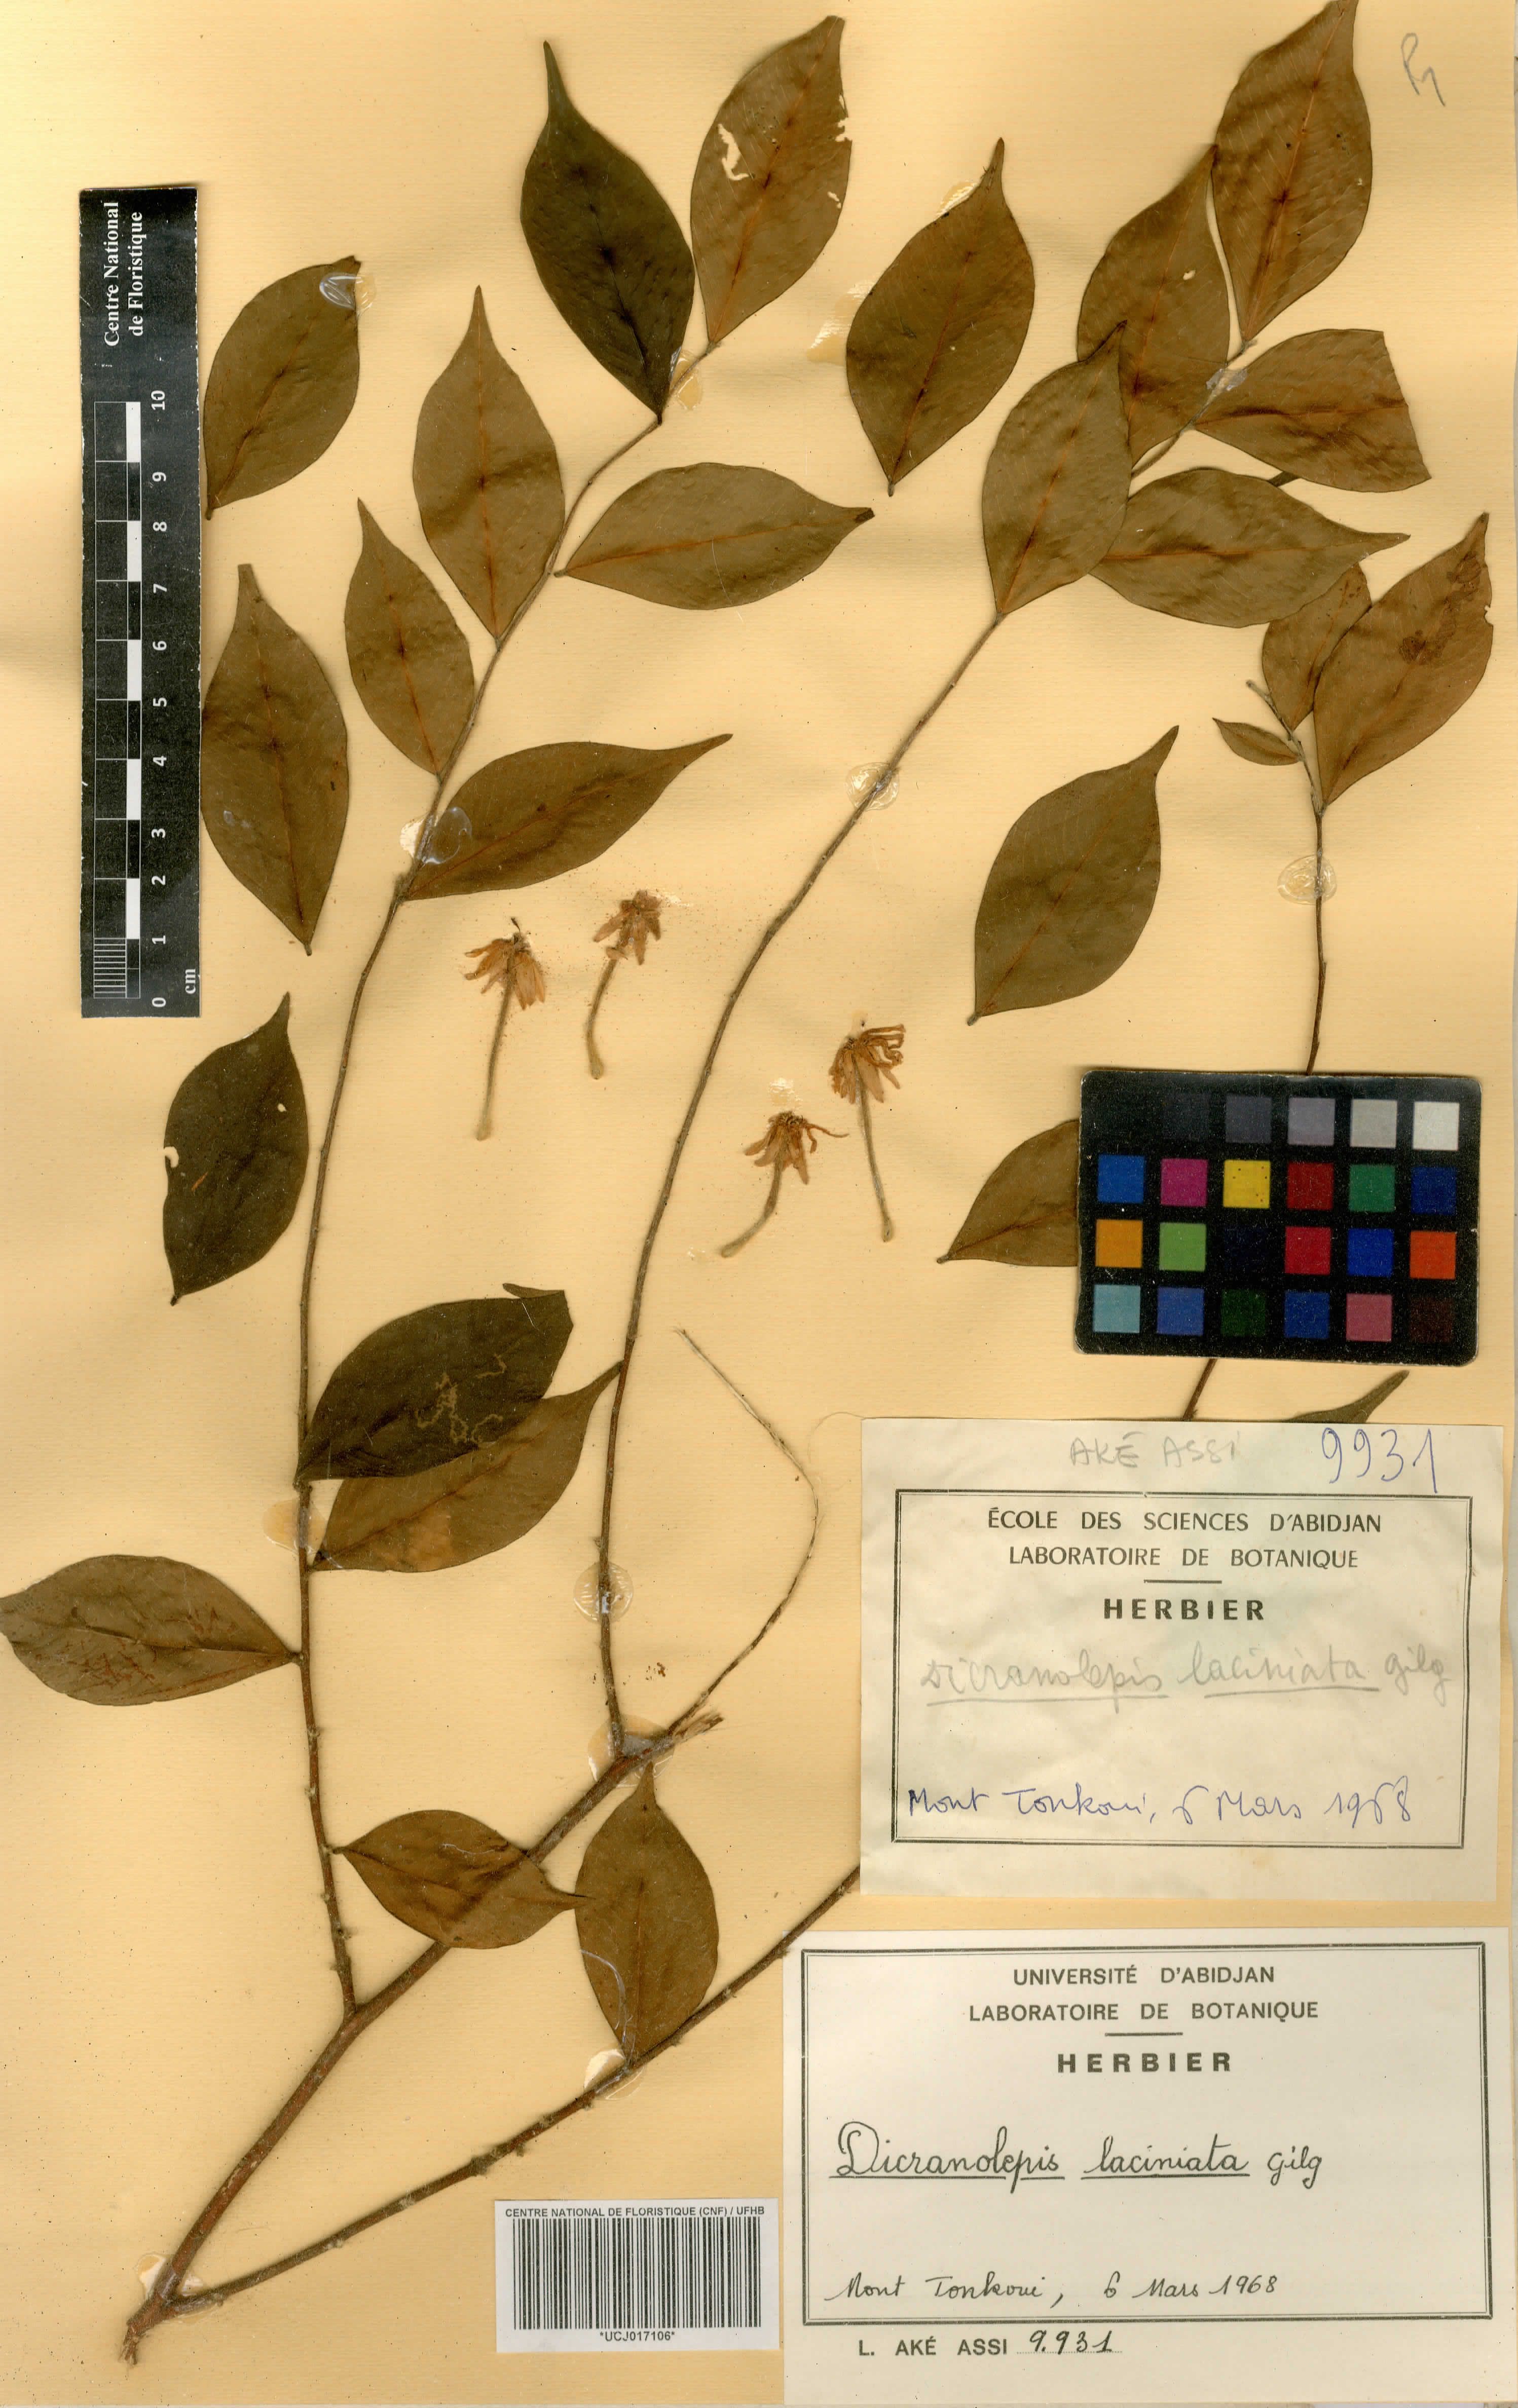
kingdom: Plantae
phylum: Tracheophyta
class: Magnoliopsida
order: Malvales
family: Thymelaeaceae
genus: Dicranolepis
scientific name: Dicranolepis laciniata
